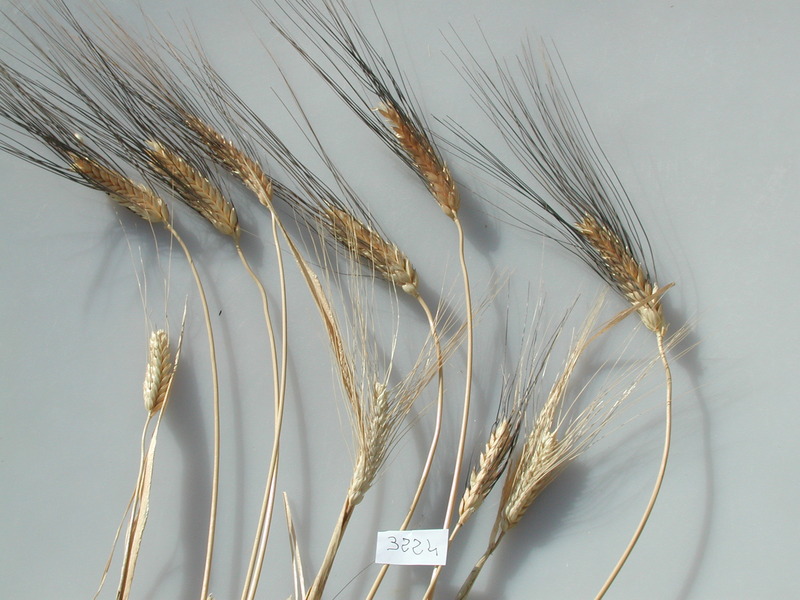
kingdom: Plantae
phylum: Tracheophyta
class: Liliopsida
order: Poales
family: Poaceae
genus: Triticum
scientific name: Triticum turgidum
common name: Wheat
